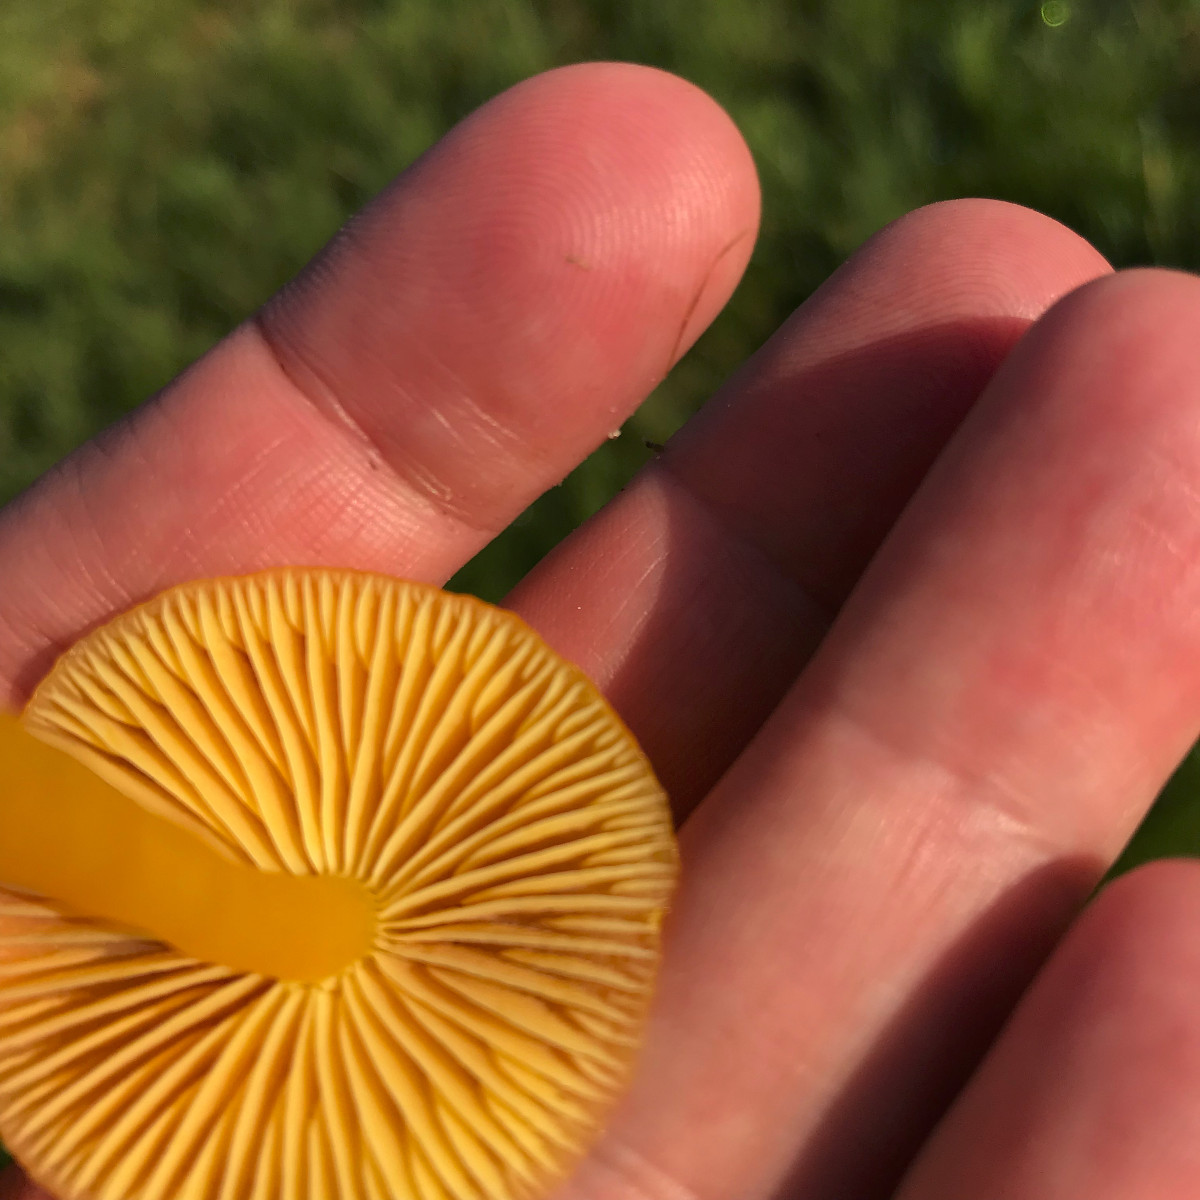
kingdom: Fungi
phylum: Basidiomycota
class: Agaricomycetes
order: Agaricales
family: Hygrophoraceae
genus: Hygrocybe
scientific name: Hygrocybe chlorophana
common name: gul vokshat
